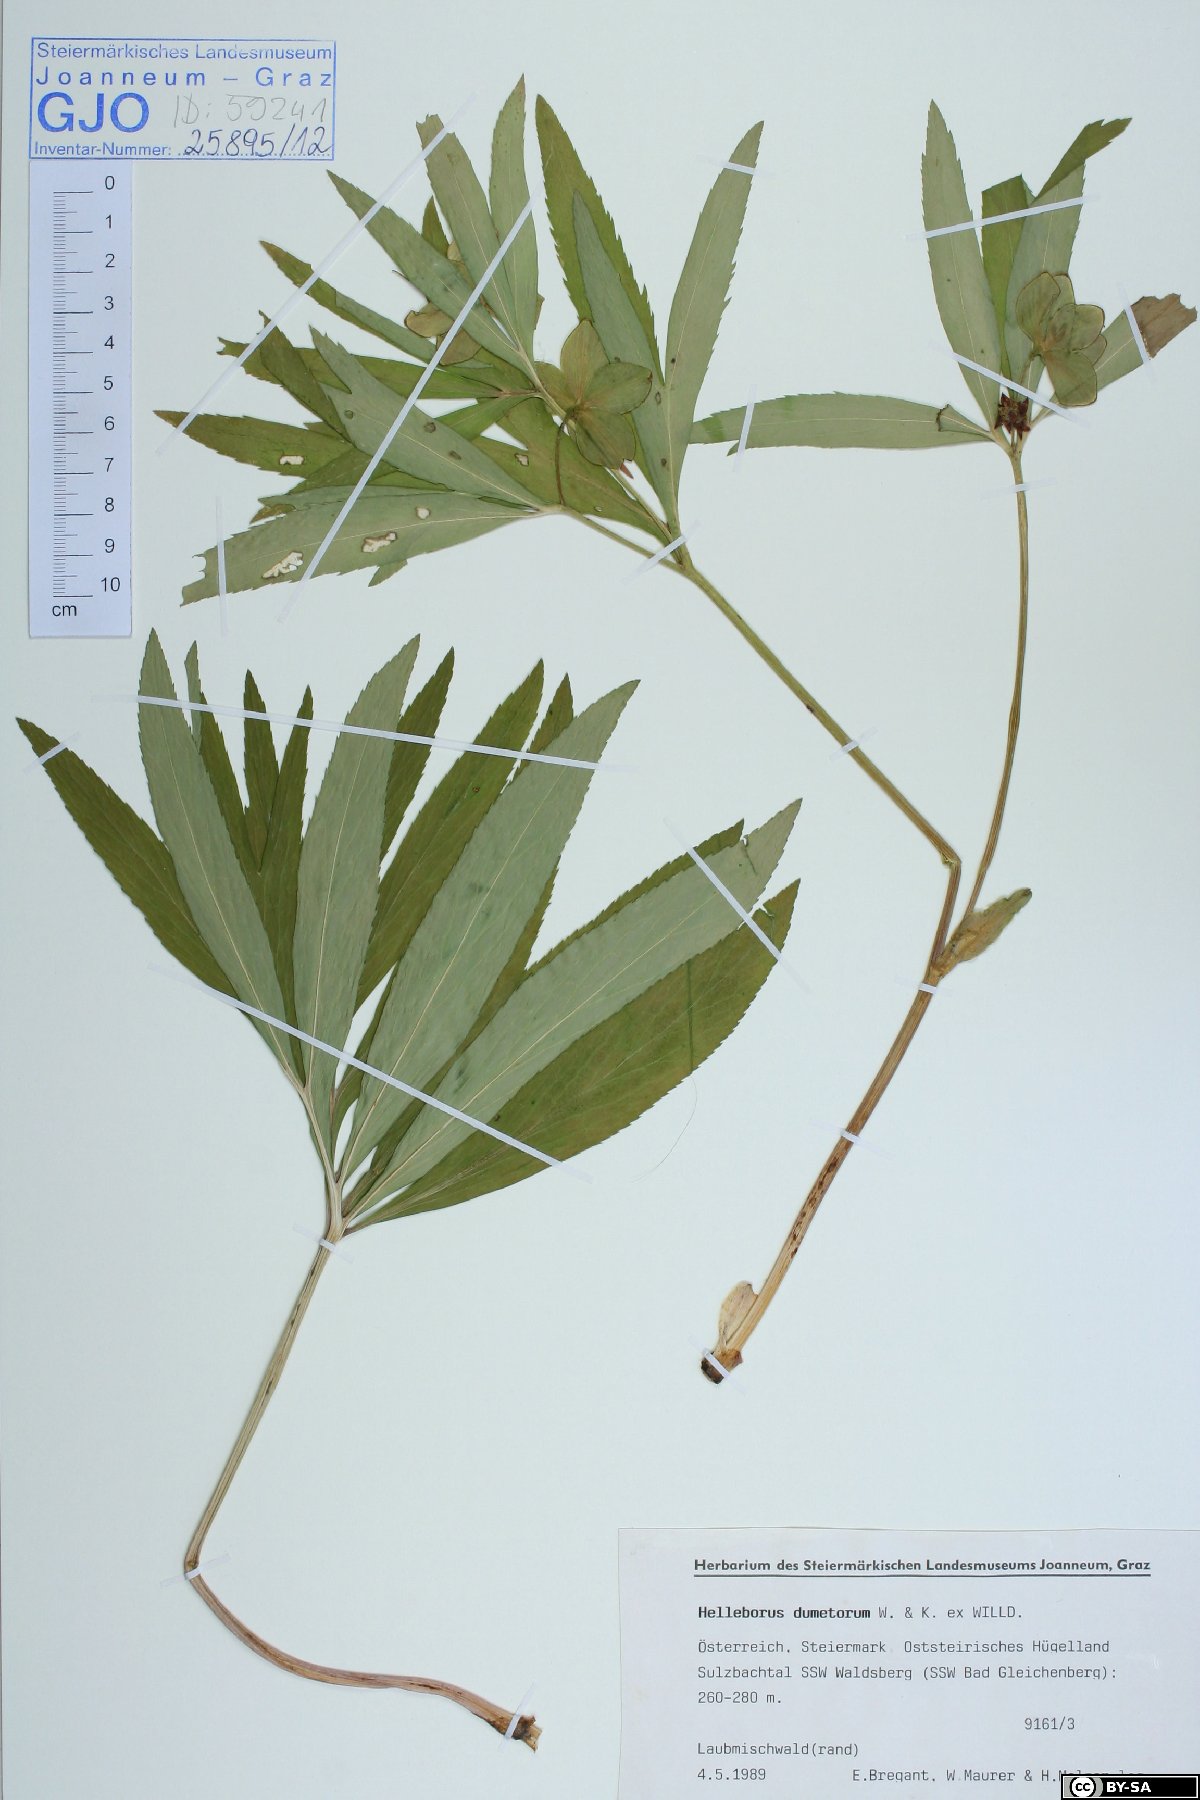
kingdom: Plantae
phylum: Tracheophyta
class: Magnoliopsida
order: Ranunculales
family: Ranunculaceae
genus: Helleborus
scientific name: Helleborus dumetorum
